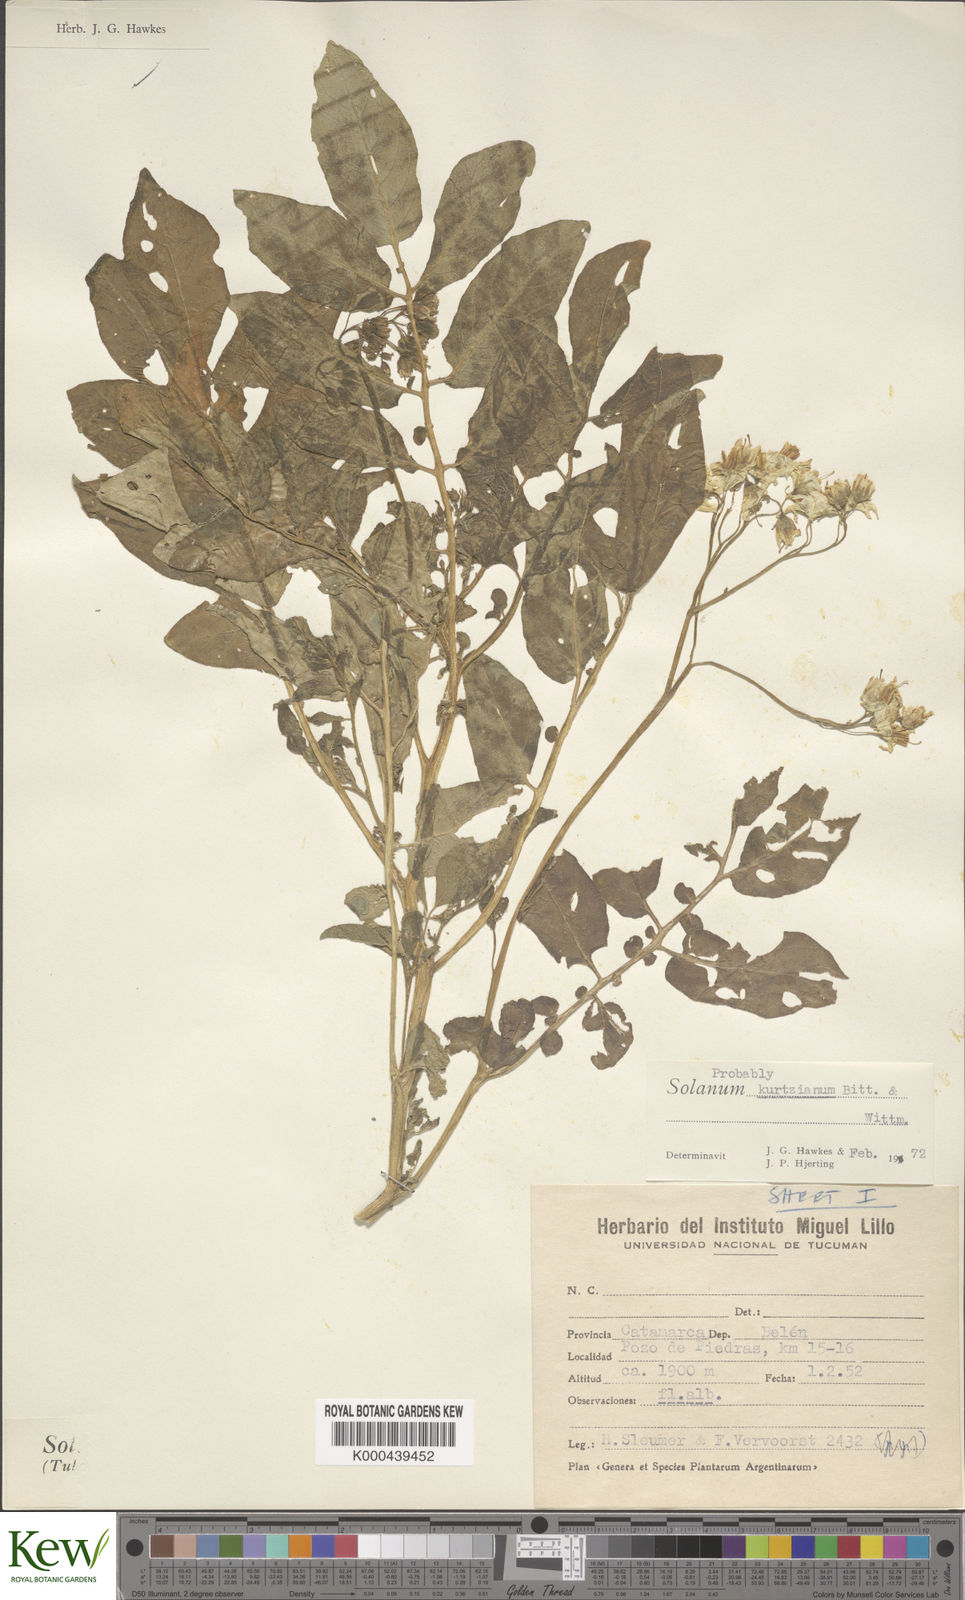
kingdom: Plantae
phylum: Tracheophyta
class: Magnoliopsida
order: Solanales
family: Solanaceae
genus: Solanum
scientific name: Solanum kurtzianum
